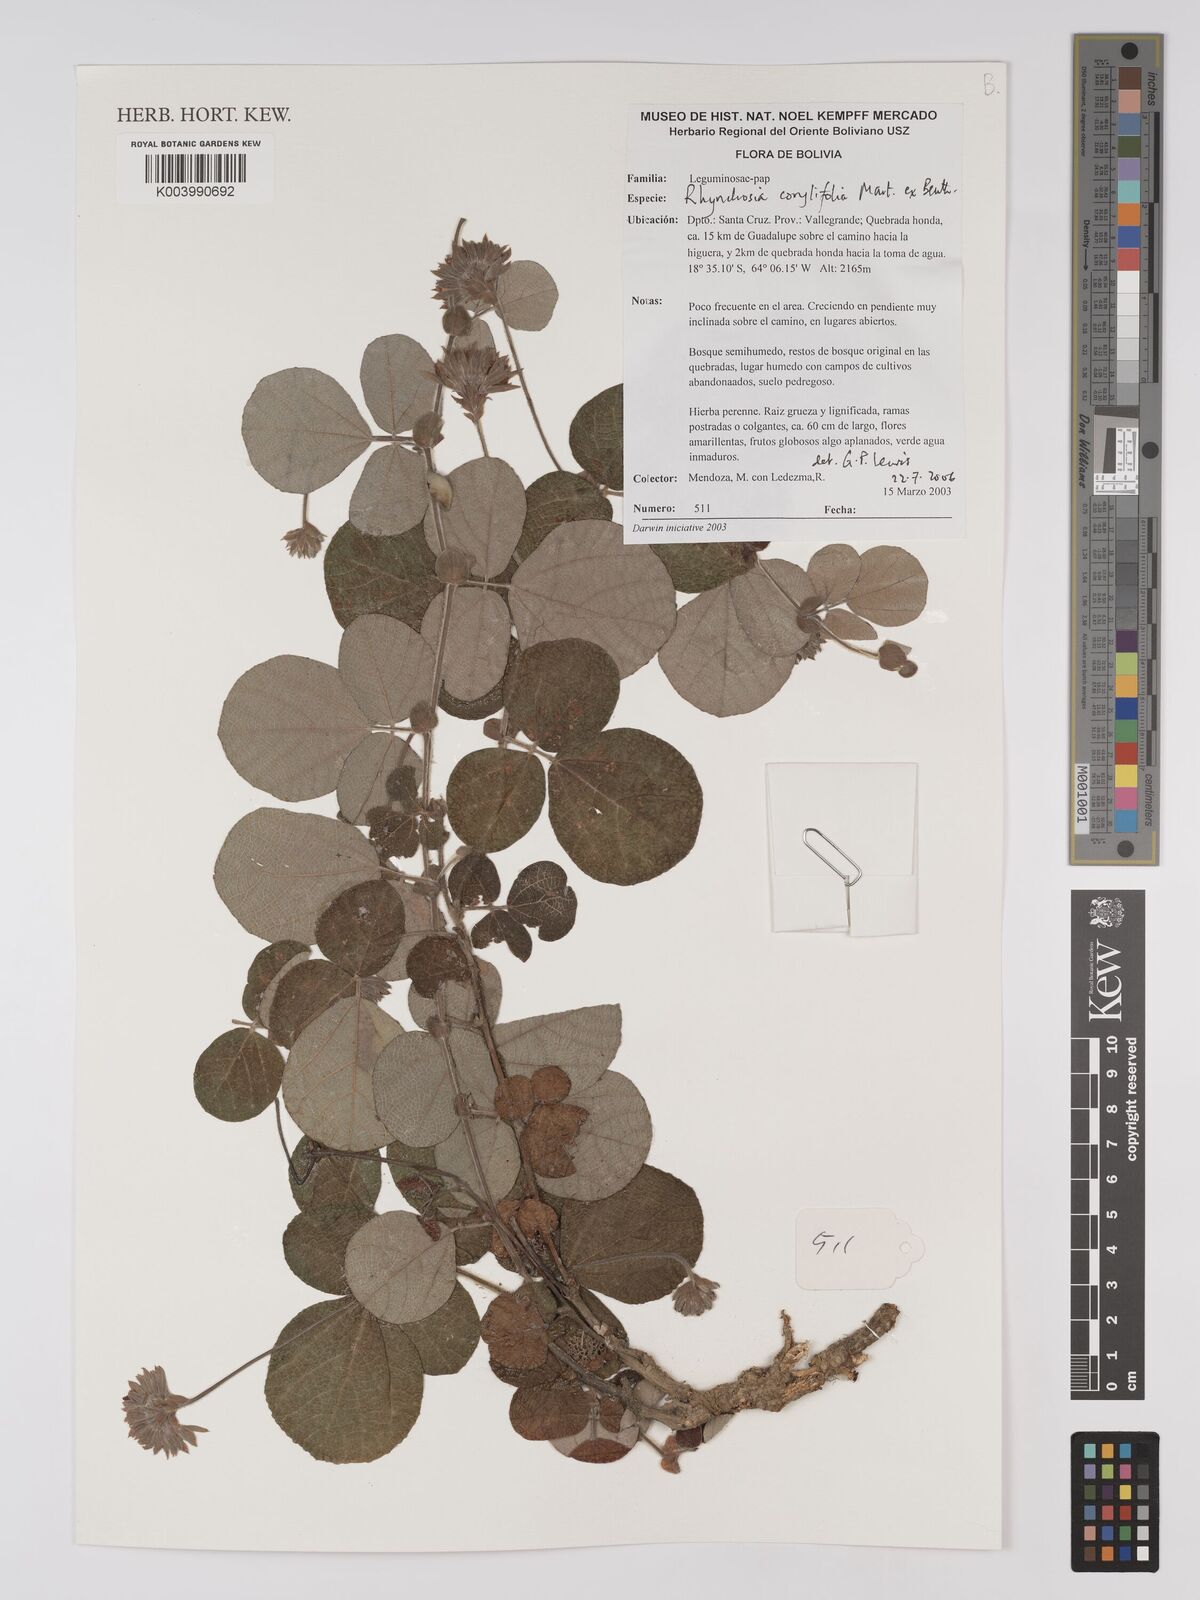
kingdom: Plantae
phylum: Tracheophyta
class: Magnoliopsida
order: Fabales
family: Fabaceae
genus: Rhynchosia
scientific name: Rhynchosia corylifolia
